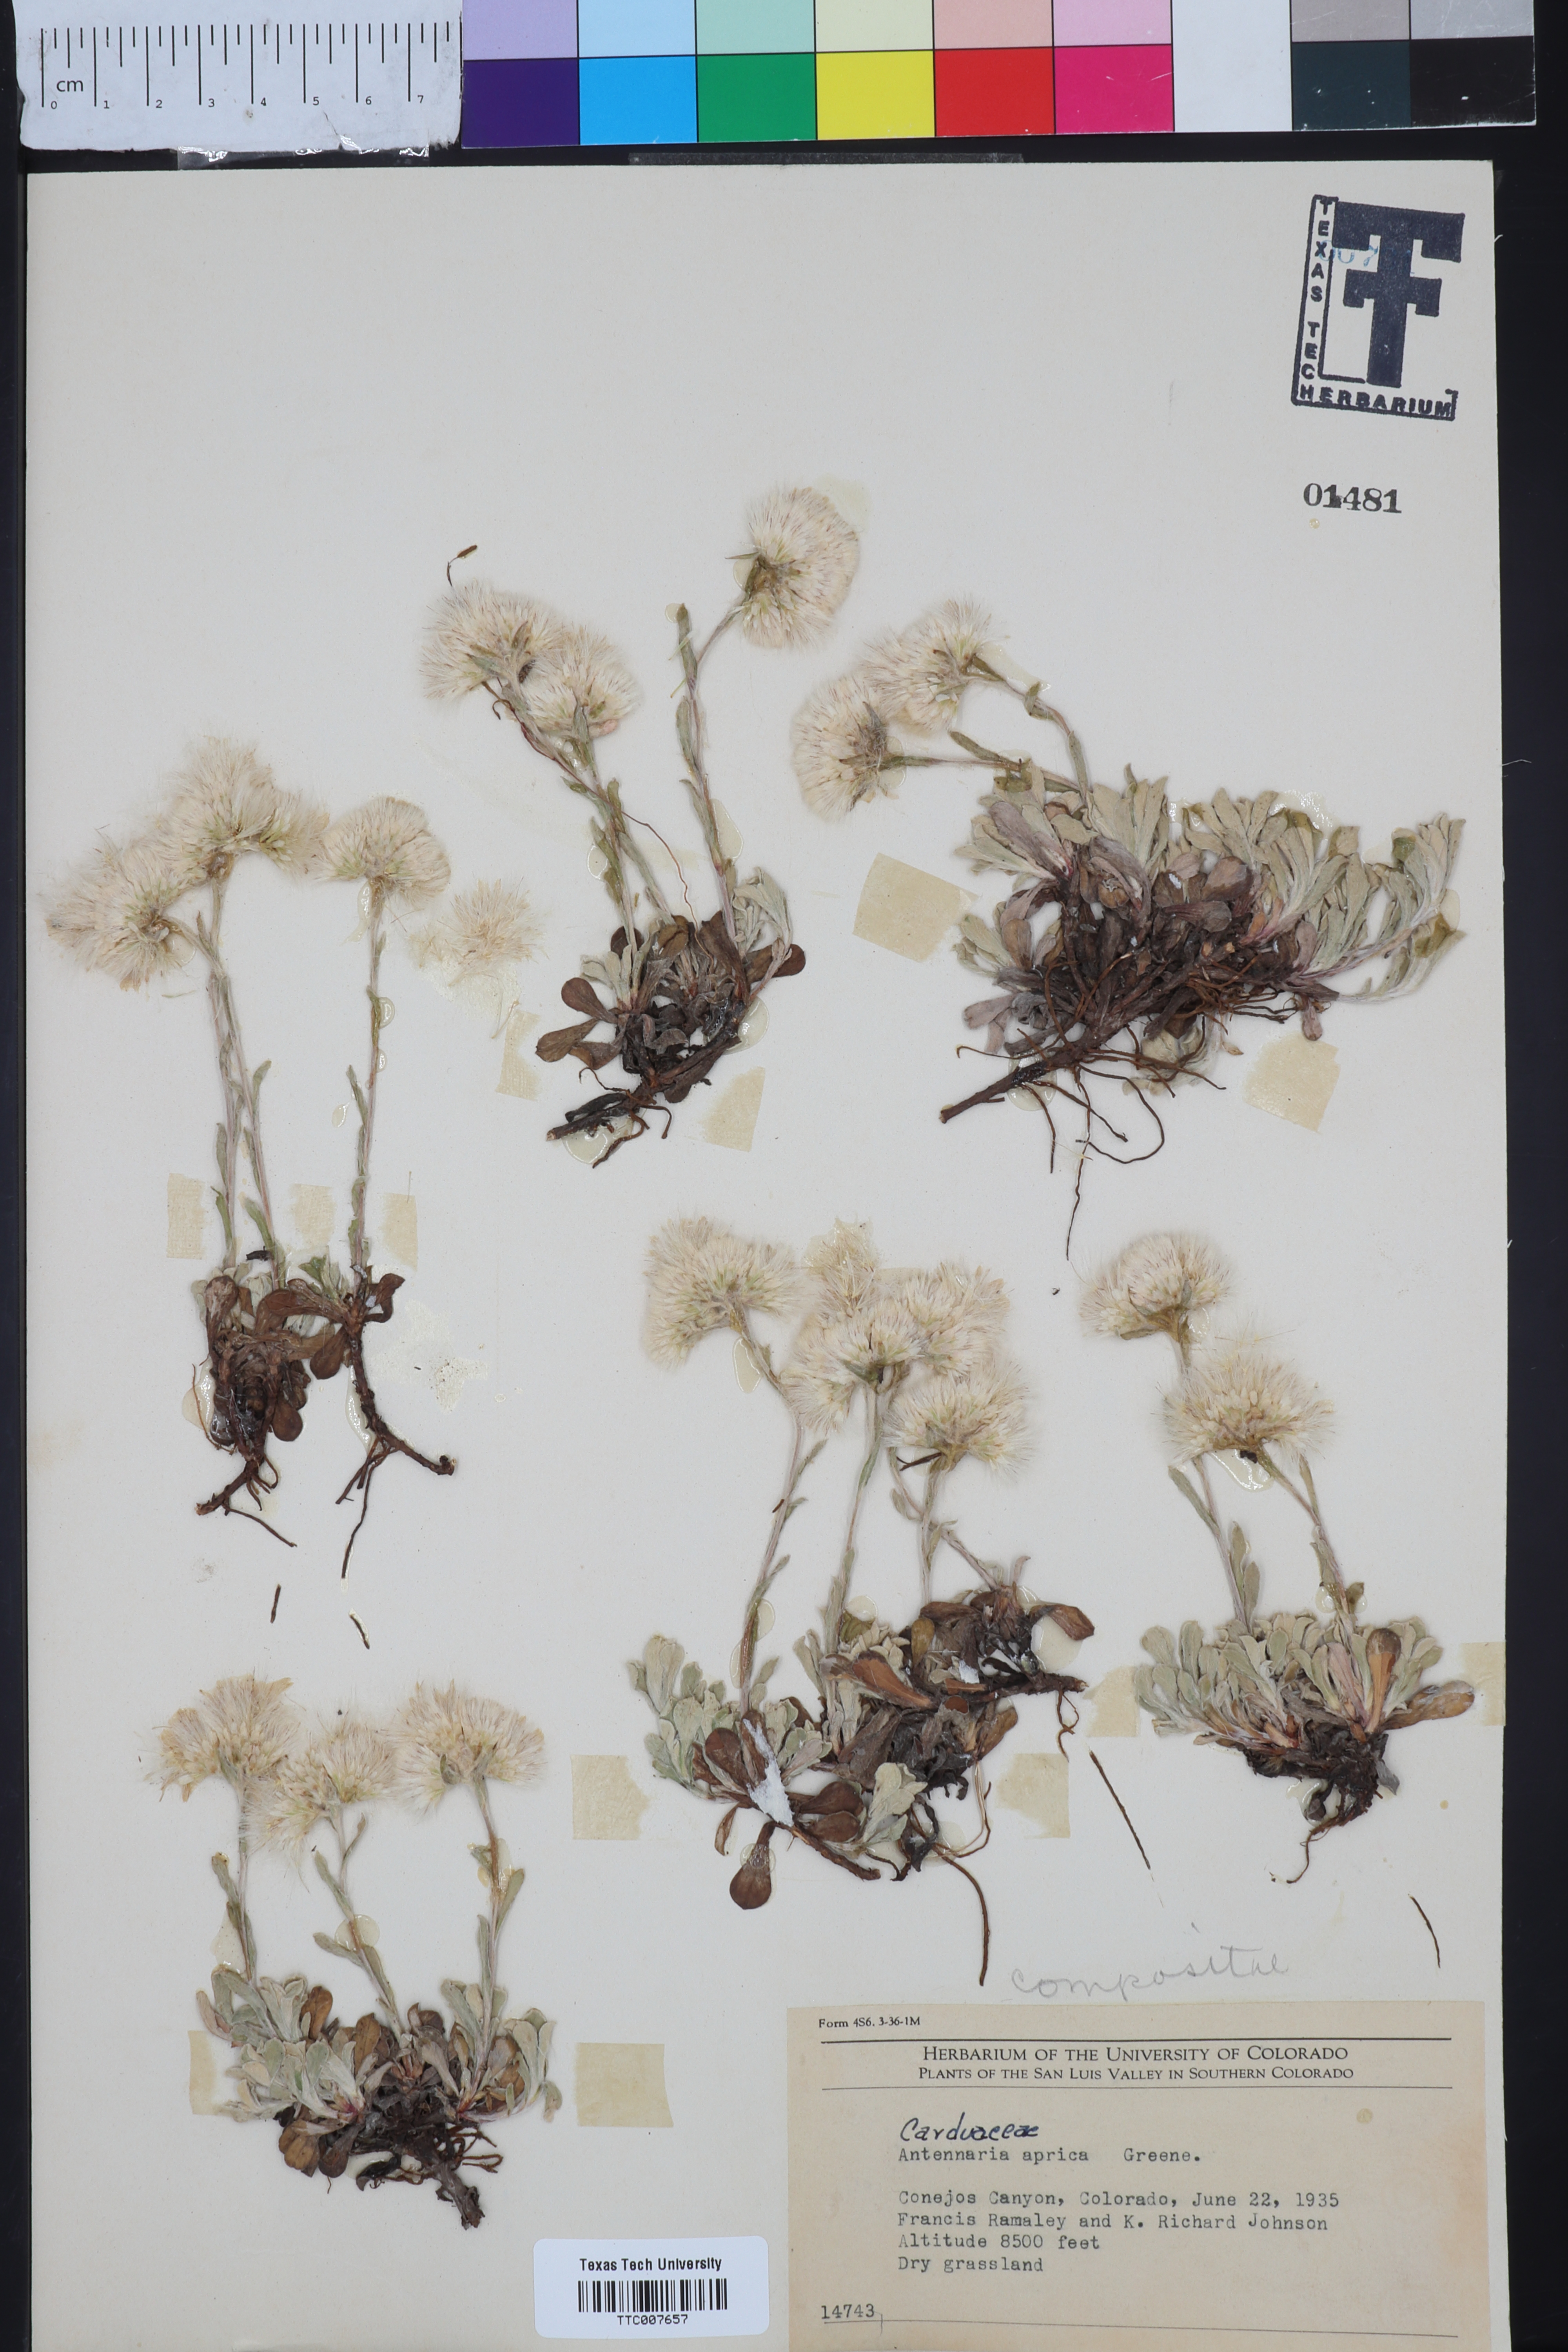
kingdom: Plantae
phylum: Tracheophyta
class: Magnoliopsida
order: Asterales
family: Asteraceae
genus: Antennaria
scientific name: Antennaria parvifolia
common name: Nuttall's pussytoes
